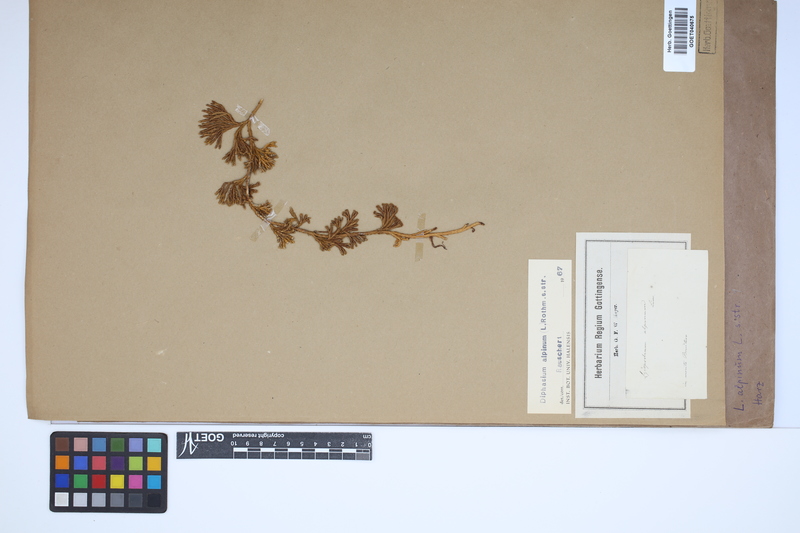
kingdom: Plantae
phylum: Tracheophyta
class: Lycopodiopsida
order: Lycopodiales
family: Lycopodiaceae
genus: Diphasiastrum
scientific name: Diphasiastrum alpinum
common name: Alpine clubmoss
